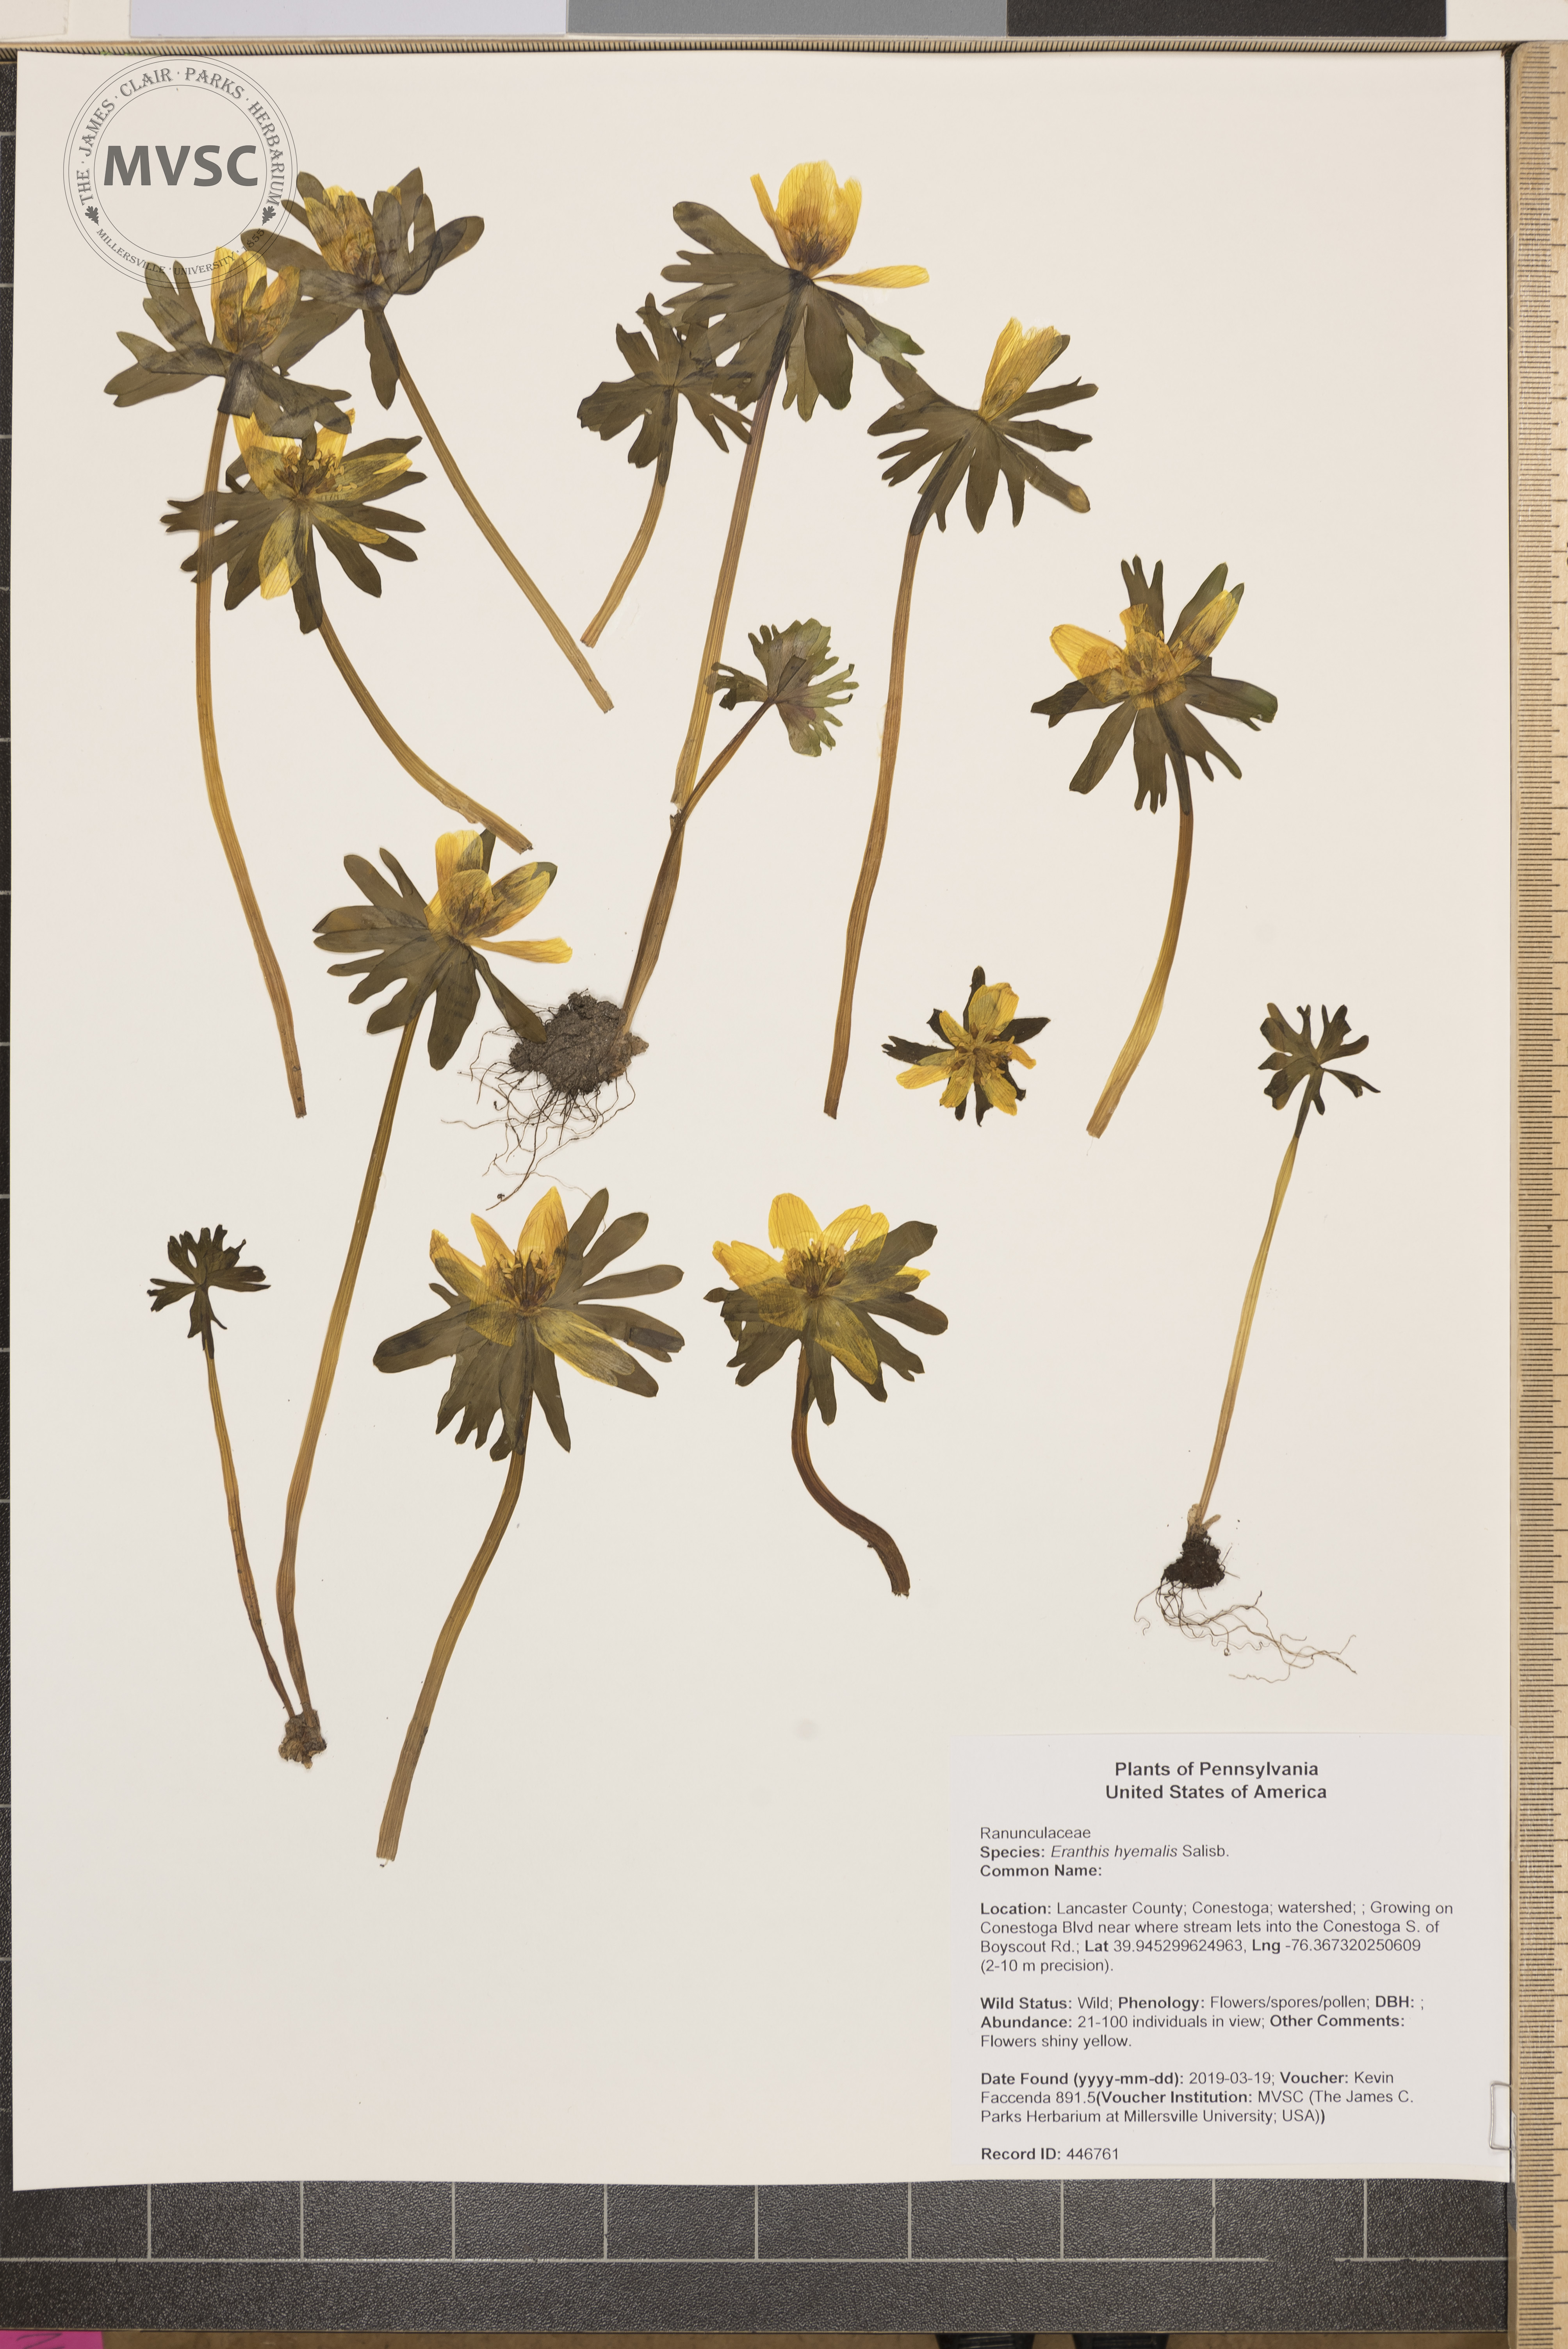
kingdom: Plantae
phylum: Tracheophyta
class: Magnoliopsida
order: Ranunculales
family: Ranunculaceae
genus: Eranthis
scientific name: Eranthis hyemalis
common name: Winter aconite
